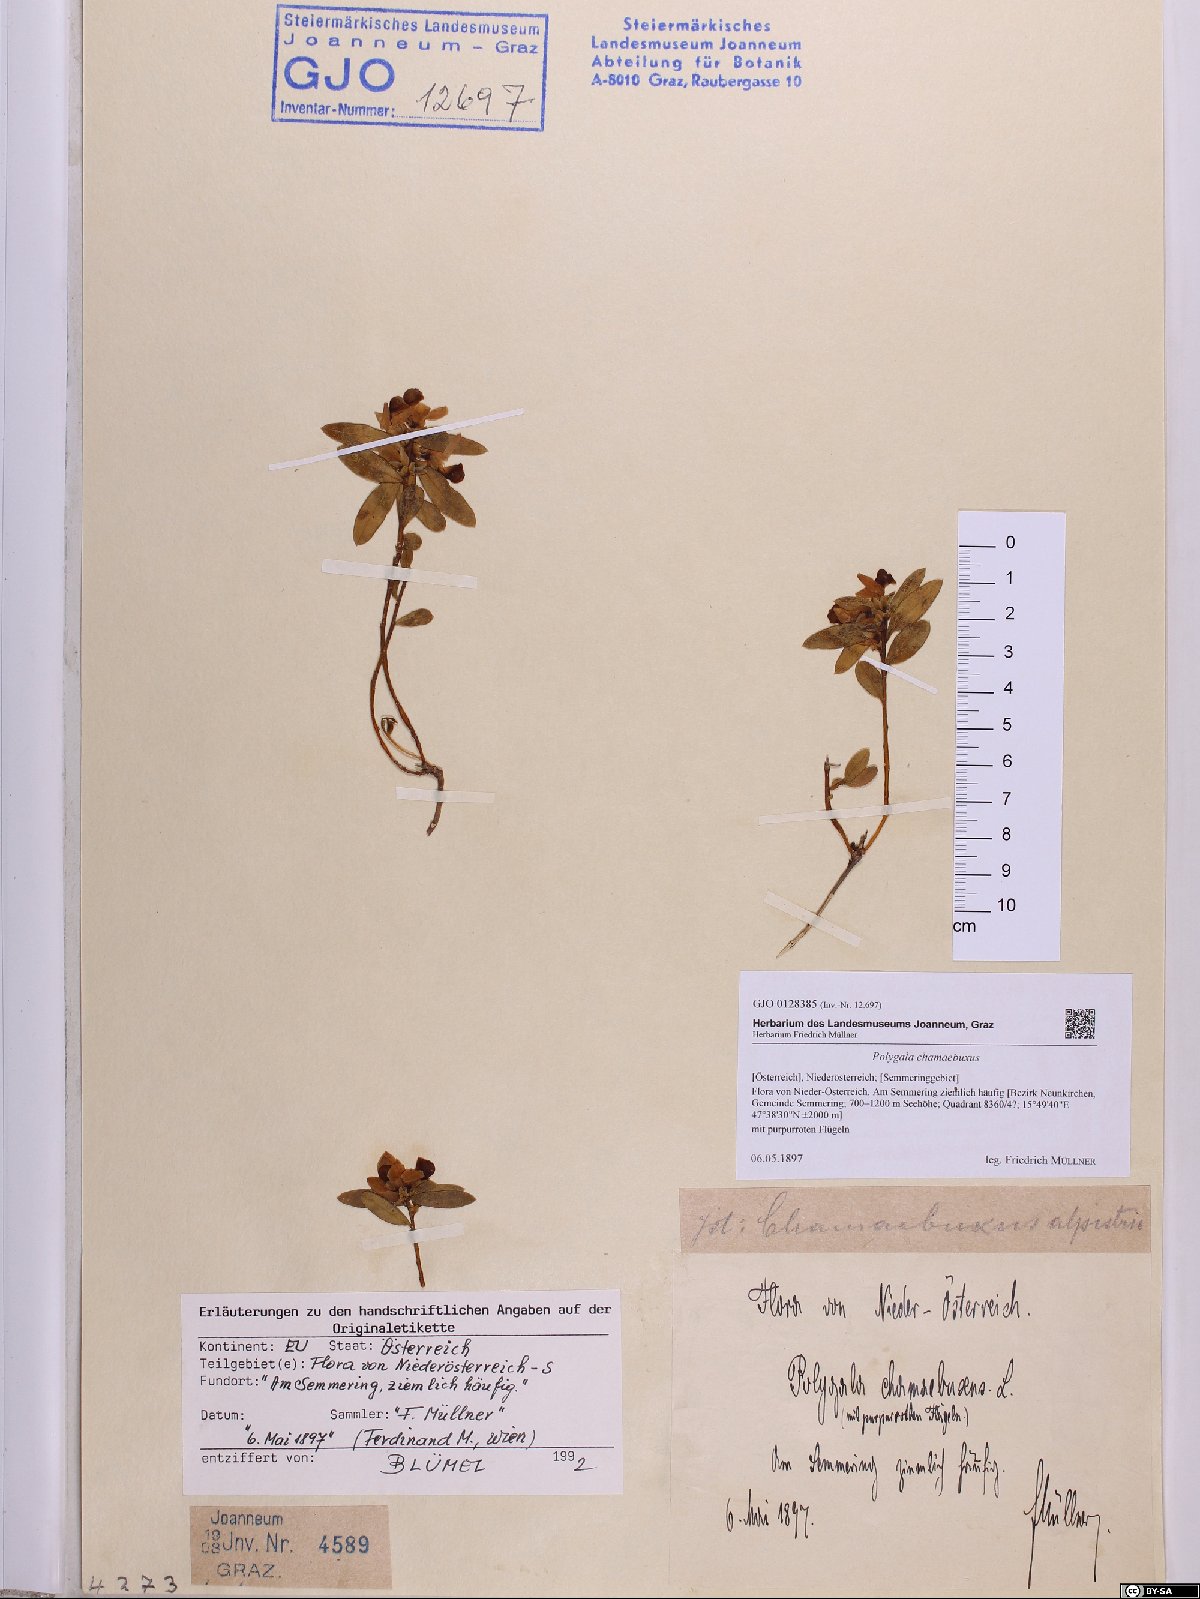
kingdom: Plantae
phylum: Tracheophyta
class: Magnoliopsida
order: Fabales
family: Polygalaceae
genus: Polygaloides
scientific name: Polygaloides chamaebuxus
